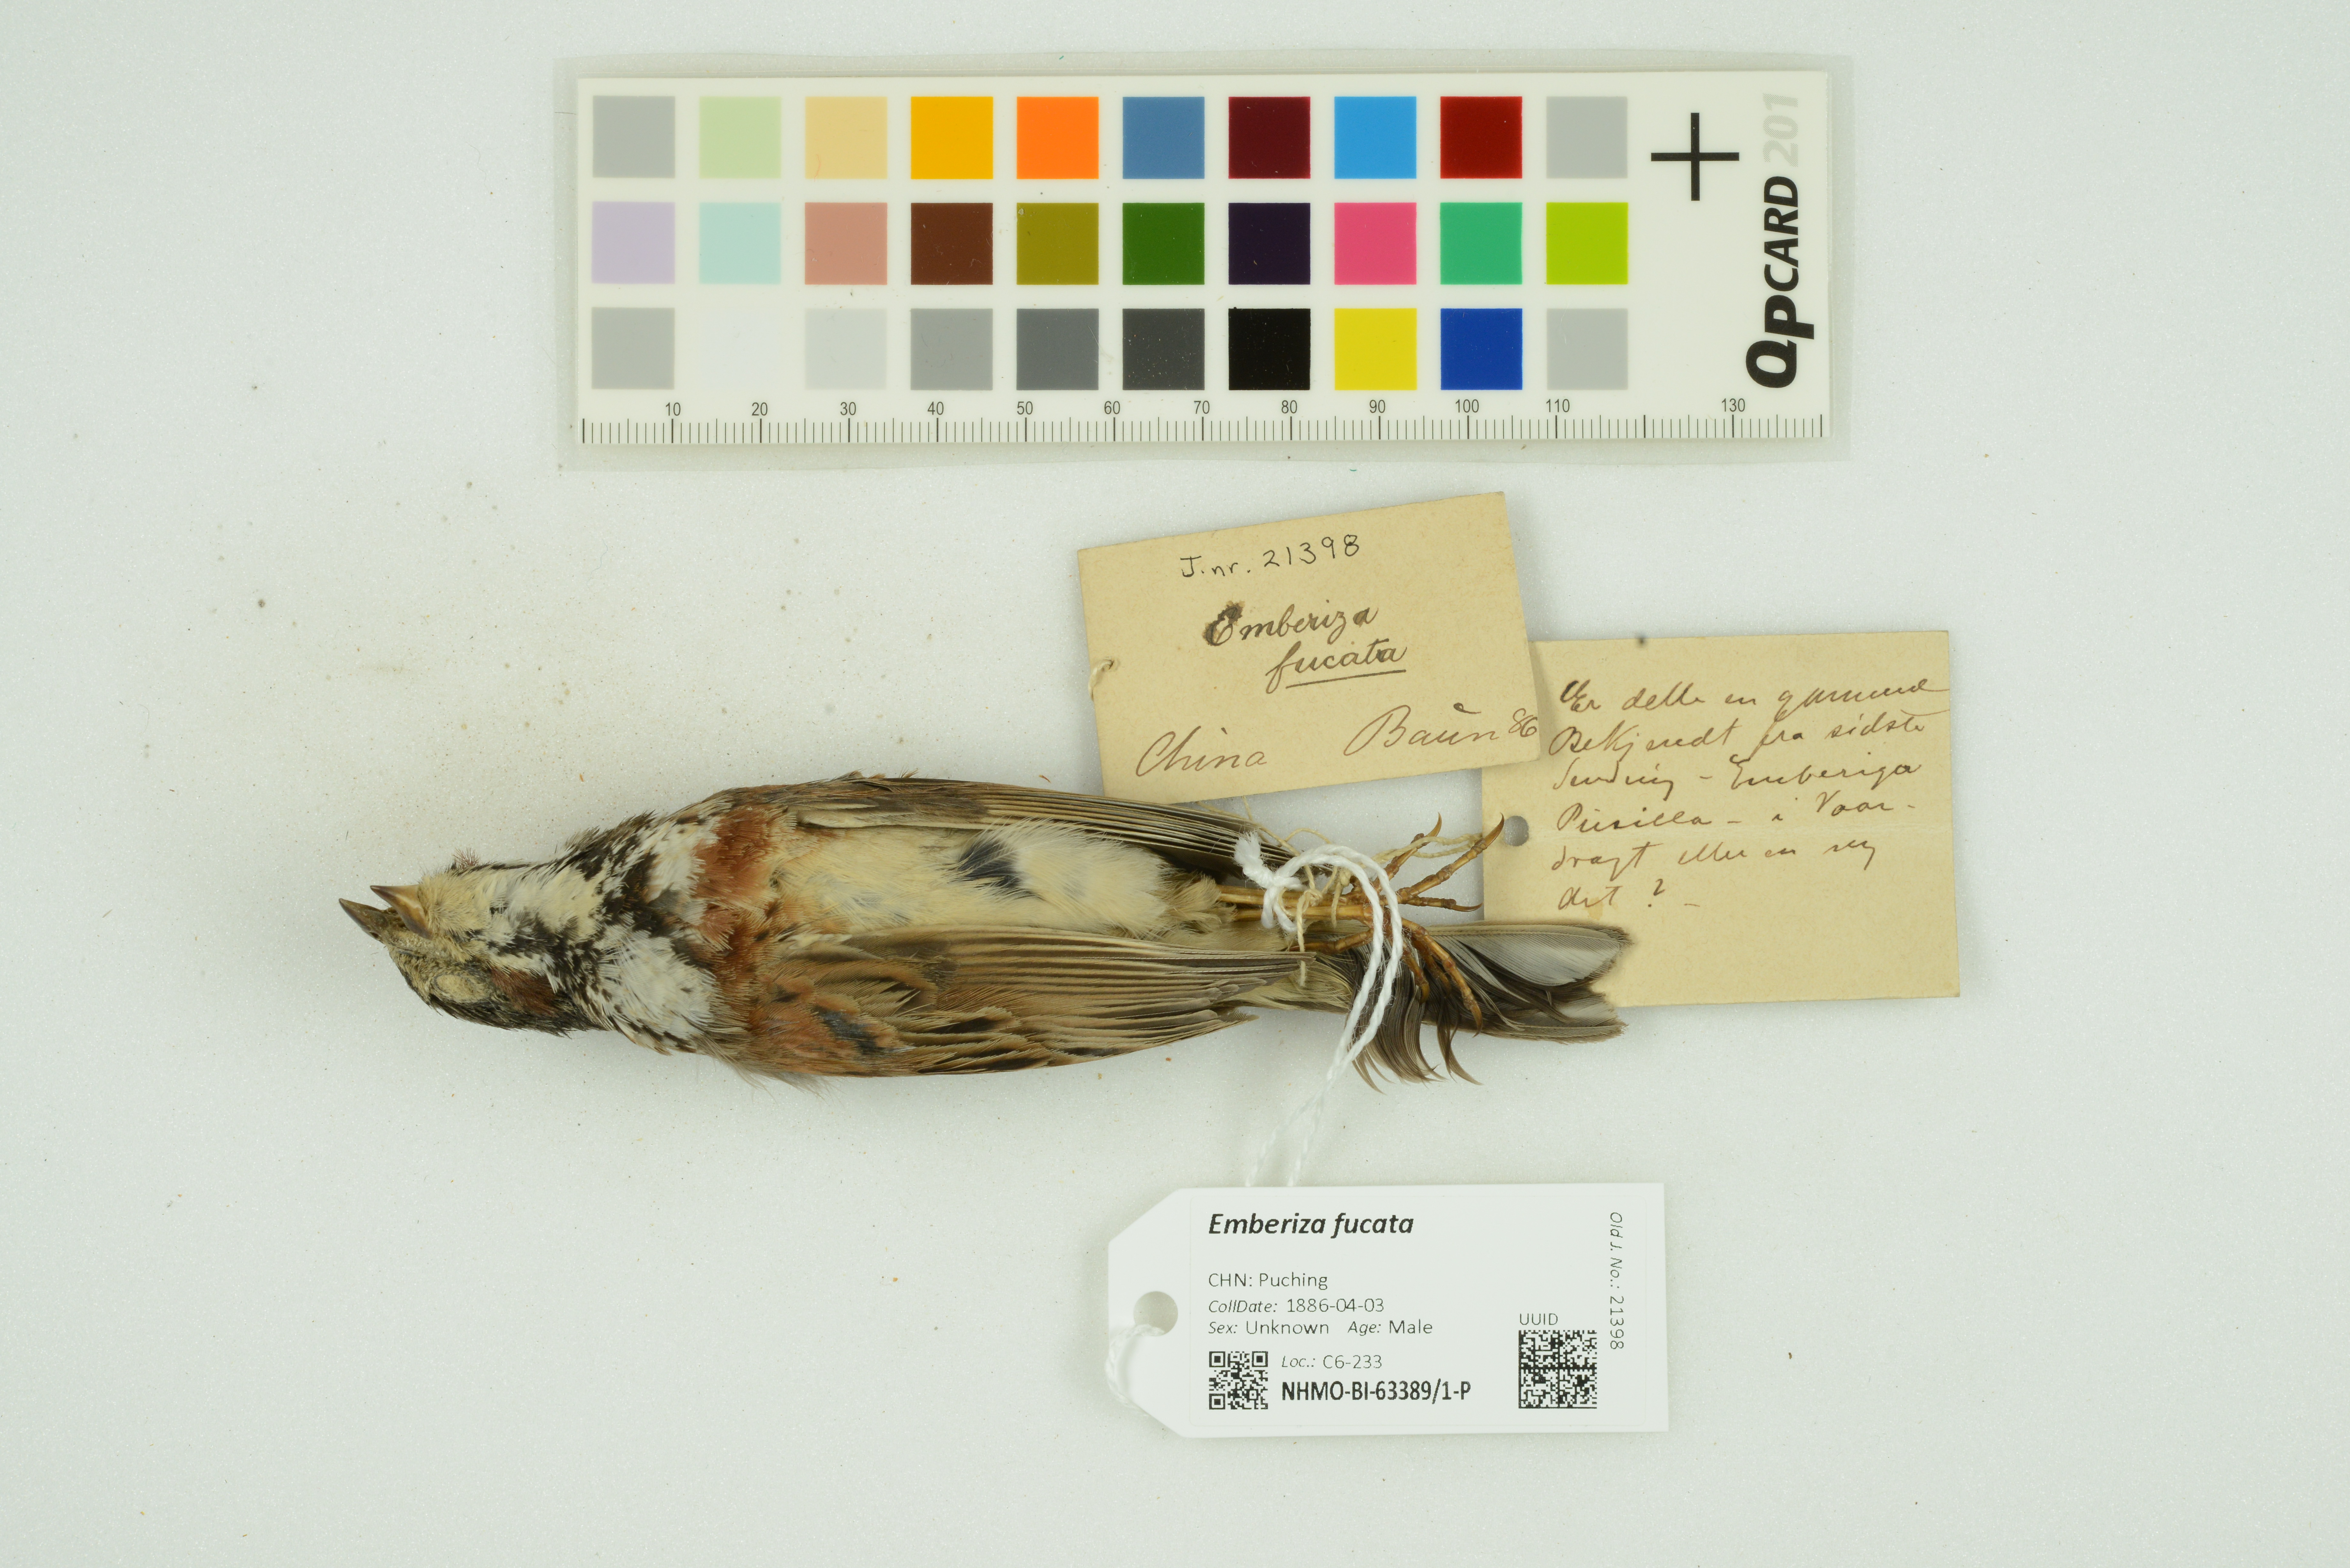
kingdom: Animalia
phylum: Chordata
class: Aves
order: Passeriformes
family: Emberizidae
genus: Emberiza
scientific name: Emberiza fucata
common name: Chestnut-eared bunting
